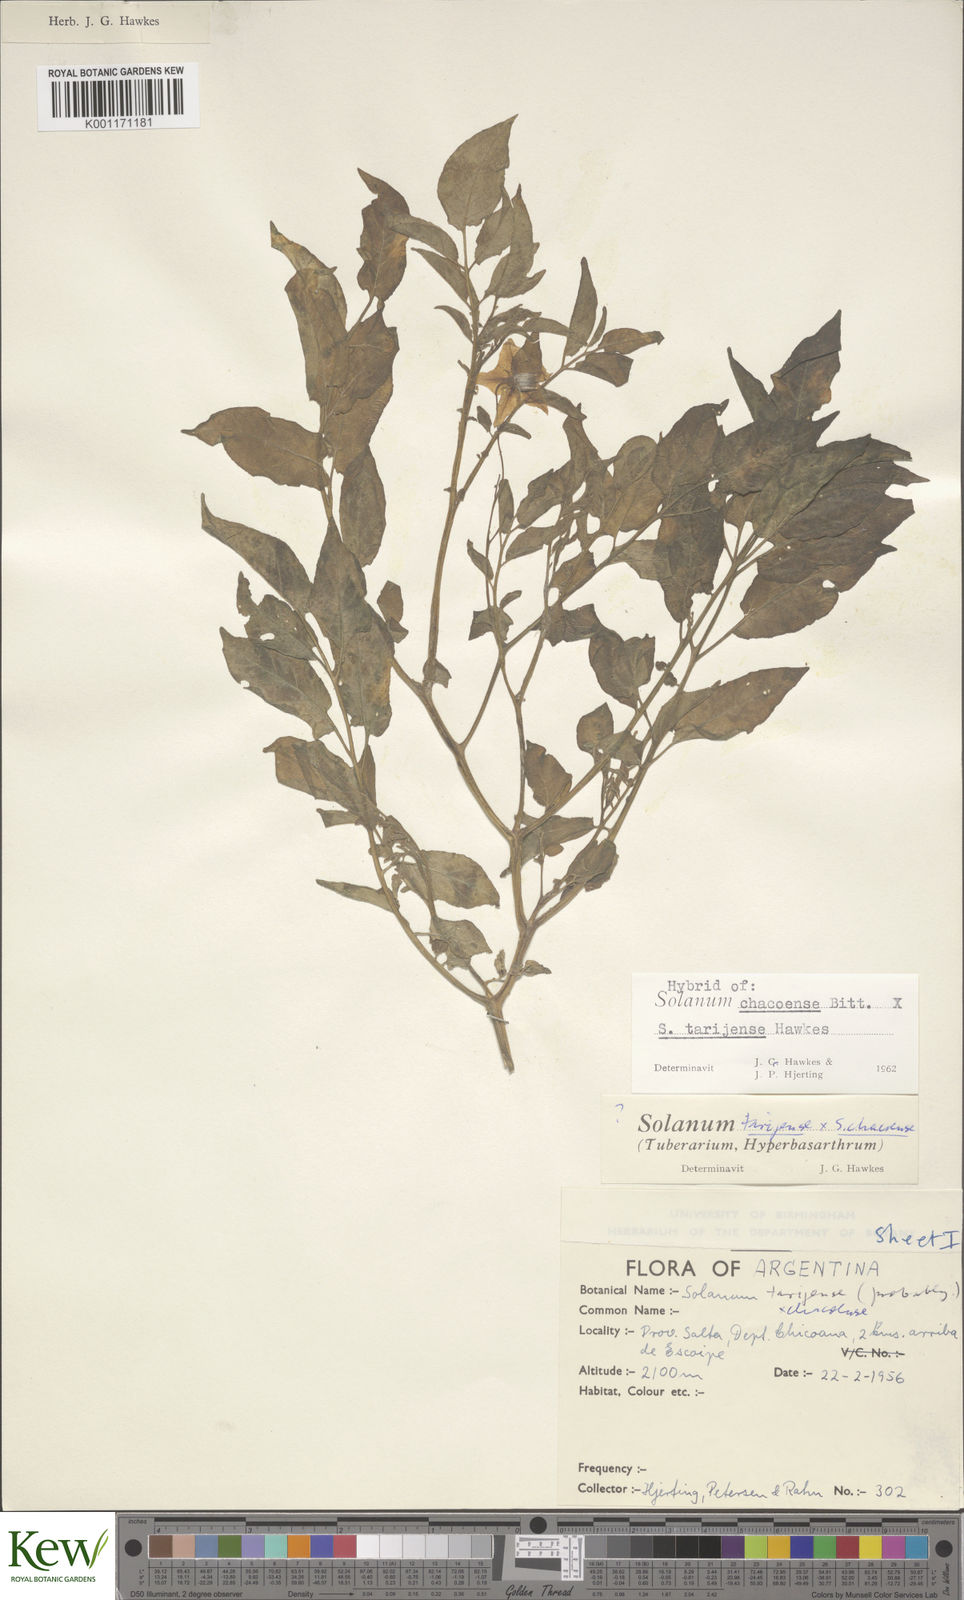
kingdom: Plantae
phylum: Tracheophyta
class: Magnoliopsida
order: Solanales
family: Solanaceae
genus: Solanum
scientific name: Solanum chacoense
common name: Chaco potato
